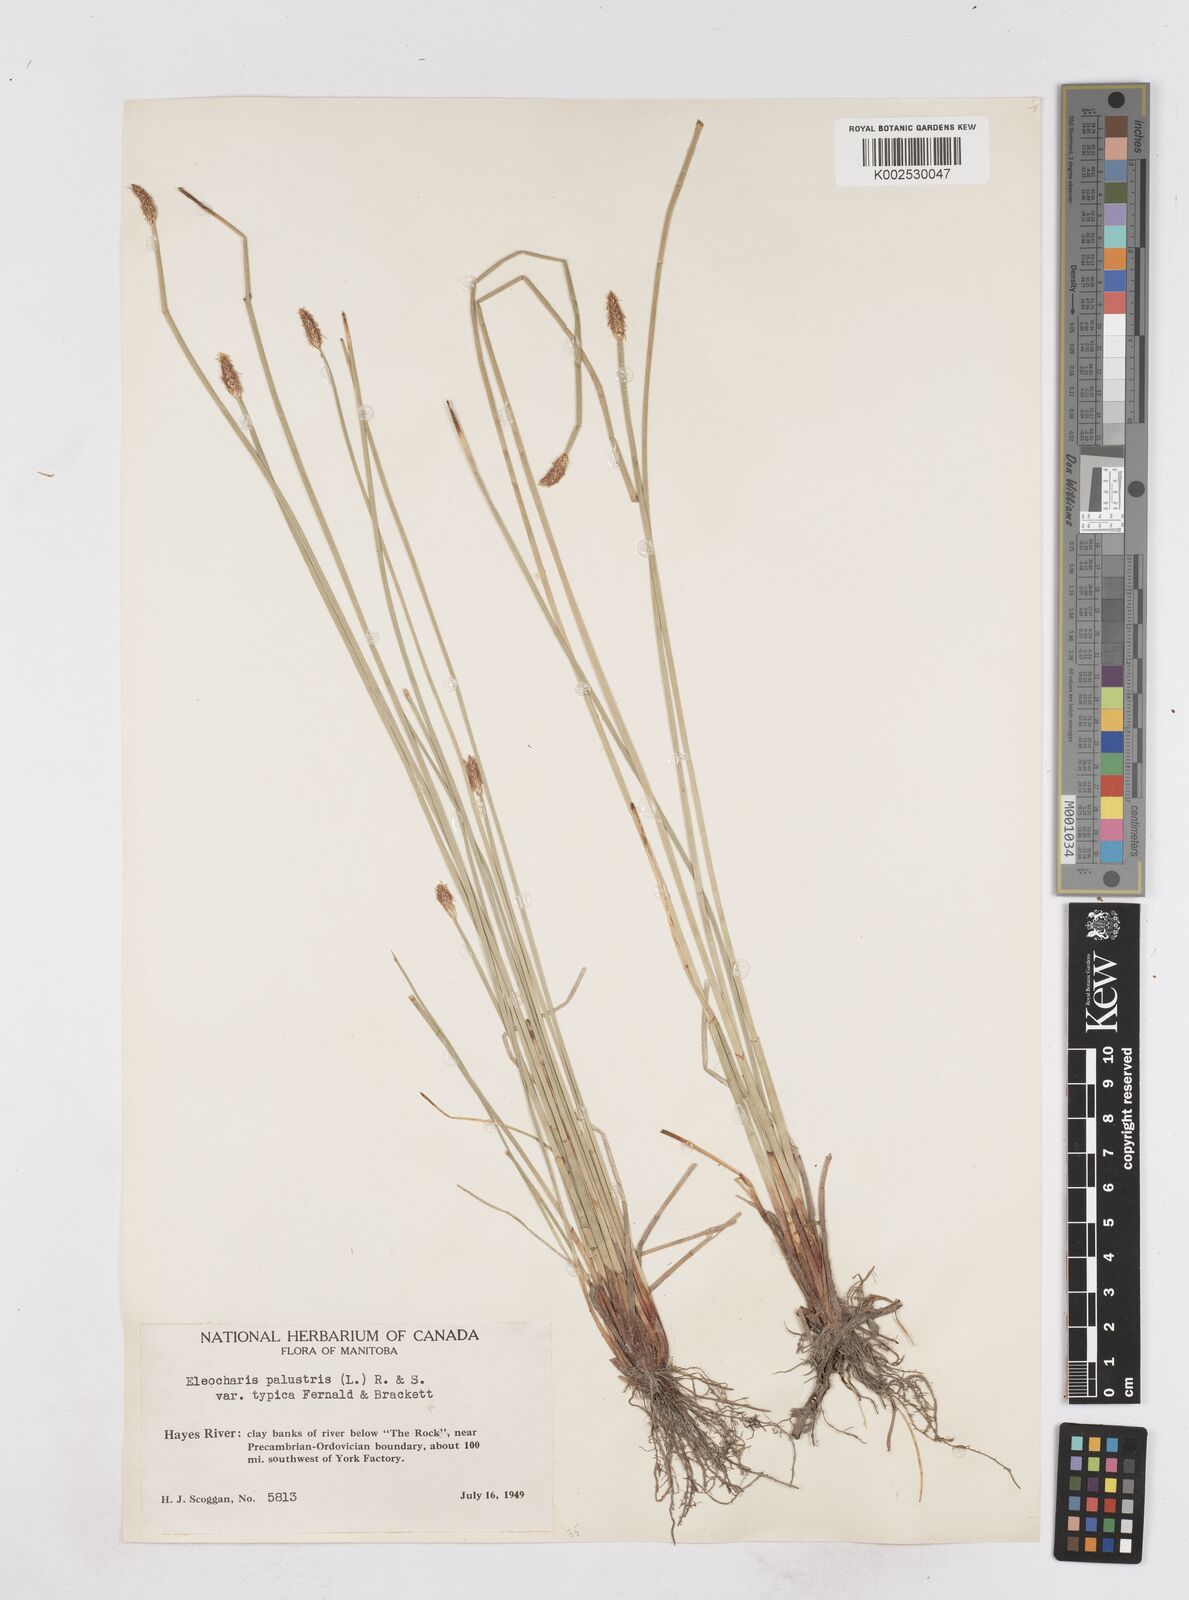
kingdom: Plantae
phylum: Tracheophyta
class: Liliopsida
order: Poales
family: Cyperaceae
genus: Eleocharis
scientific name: Eleocharis palustris
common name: Common spike-rush
